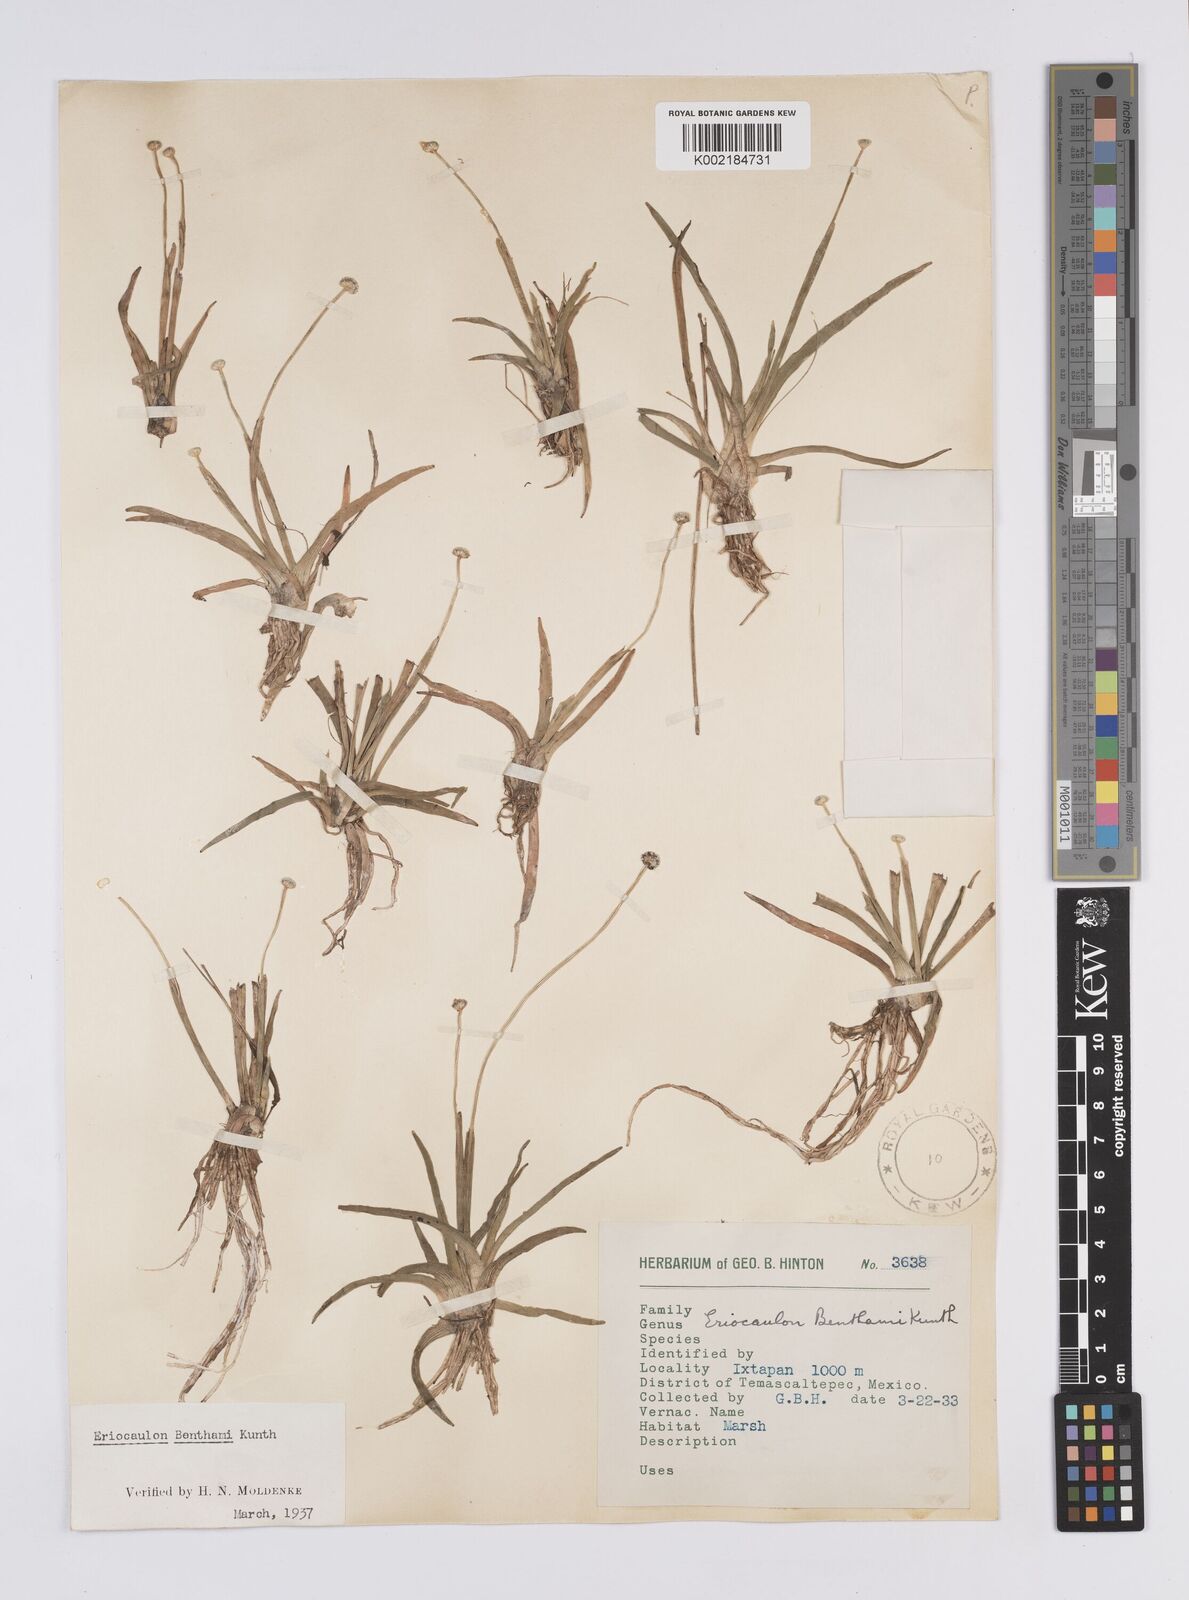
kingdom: Plantae
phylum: Tracheophyta
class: Liliopsida
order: Poales
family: Eriocaulaceae
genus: Eriocaulon
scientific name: Eriocaulon benthamii
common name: Bentham's pipewort
